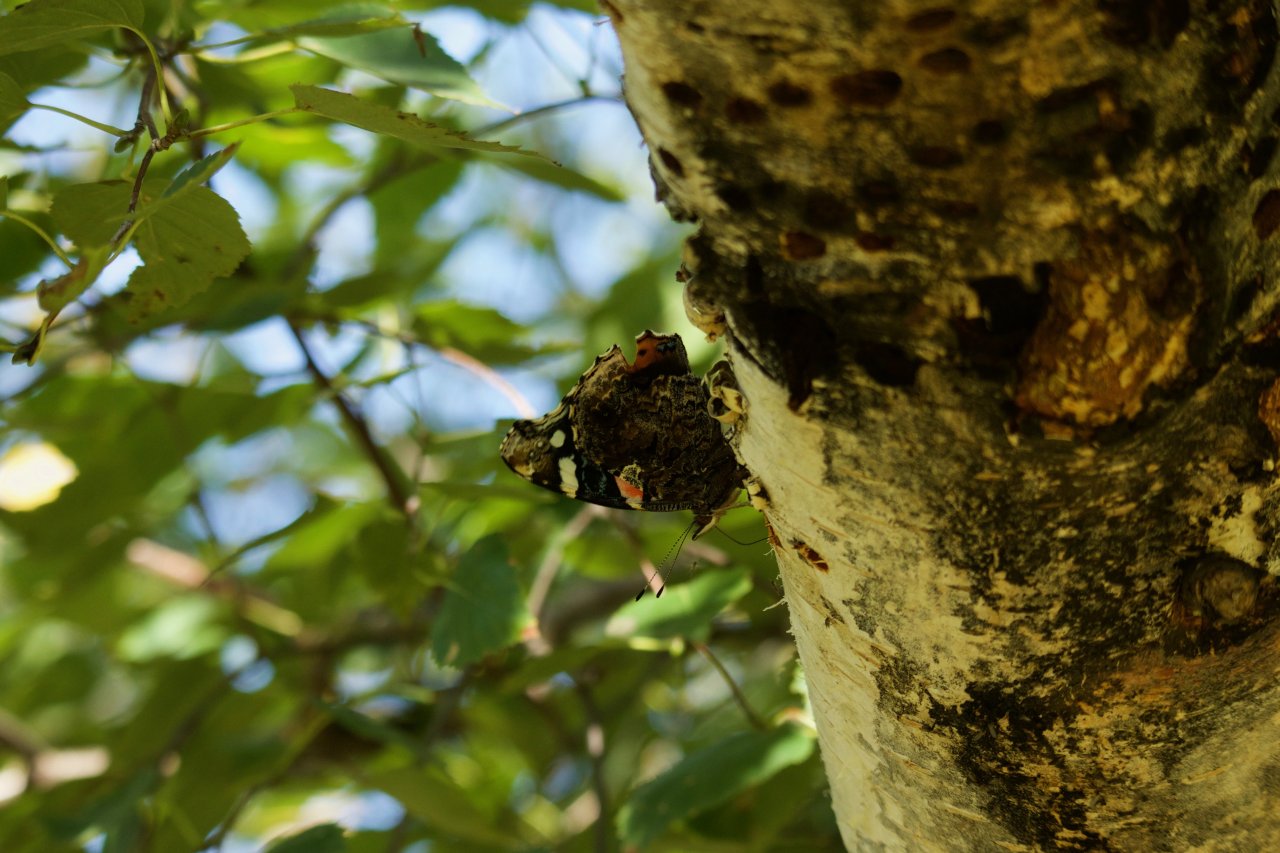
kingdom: Animalia
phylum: Arthropoda
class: Insecta
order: Lepidoptera
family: Nymphalidae
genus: Vanessa
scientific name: Vanessa atalanta
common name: Red Admiral
